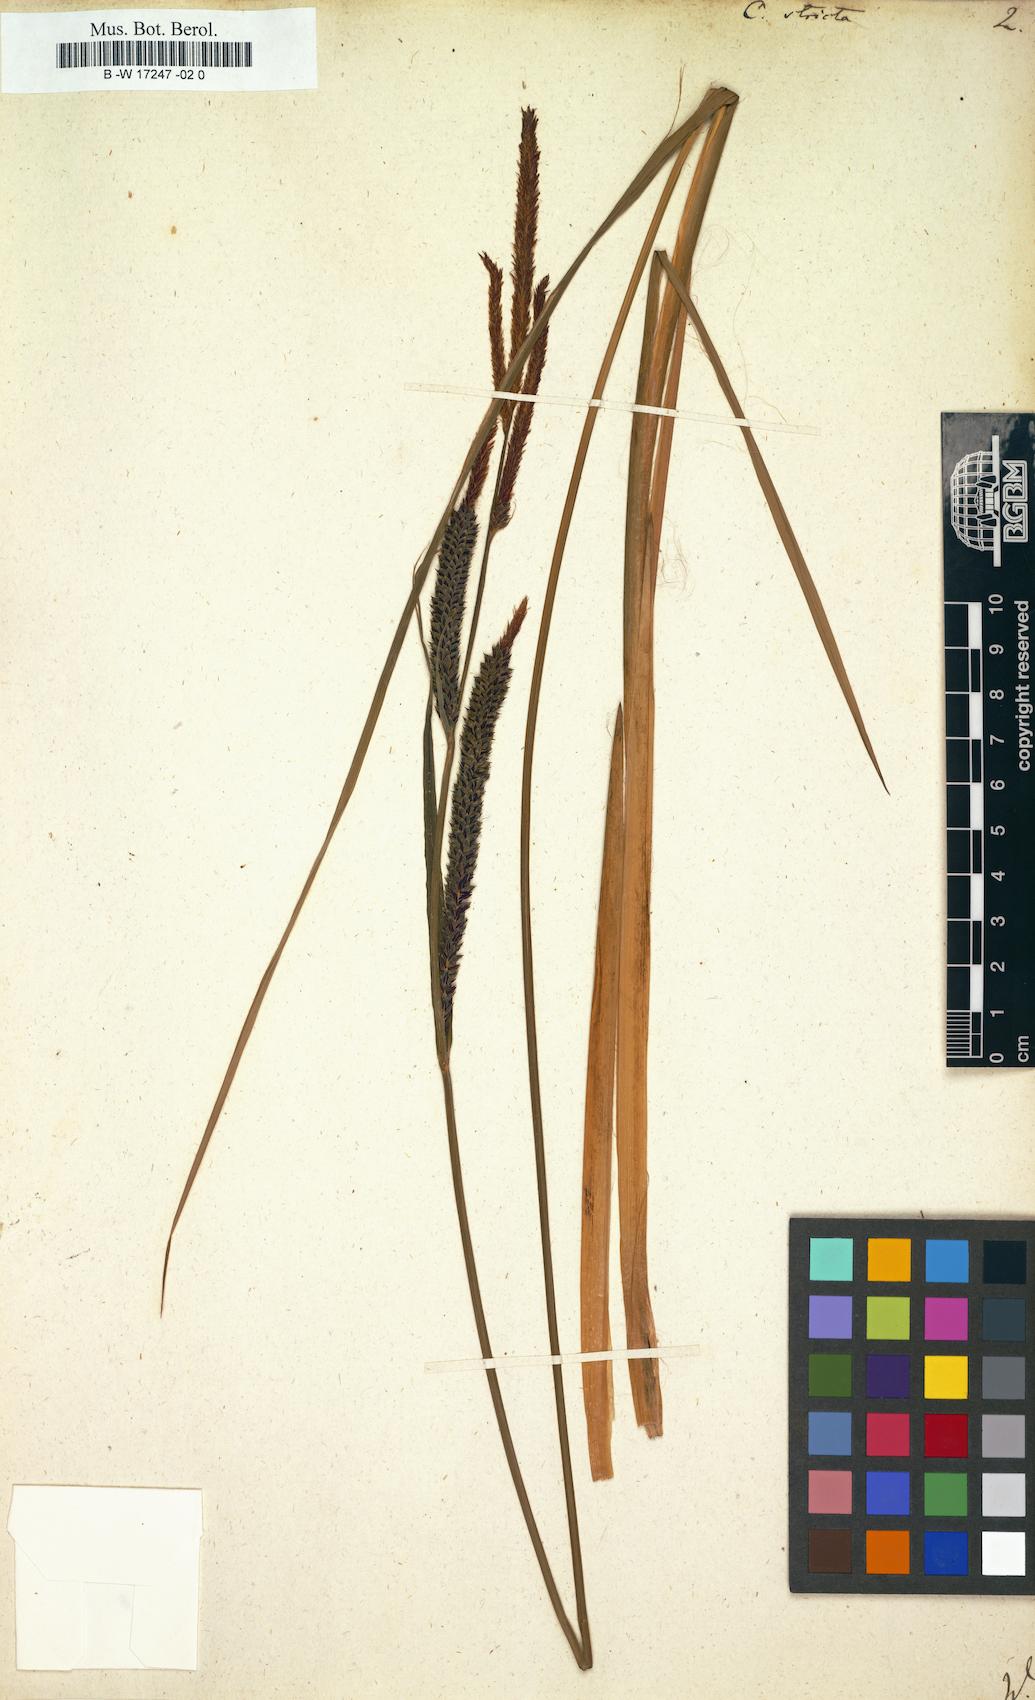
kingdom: Plantae
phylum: Tracheophyta
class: Liliopsida
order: Poales
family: Cyperaceae
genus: Carex
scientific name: Carex stricta
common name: Hummock sedge
